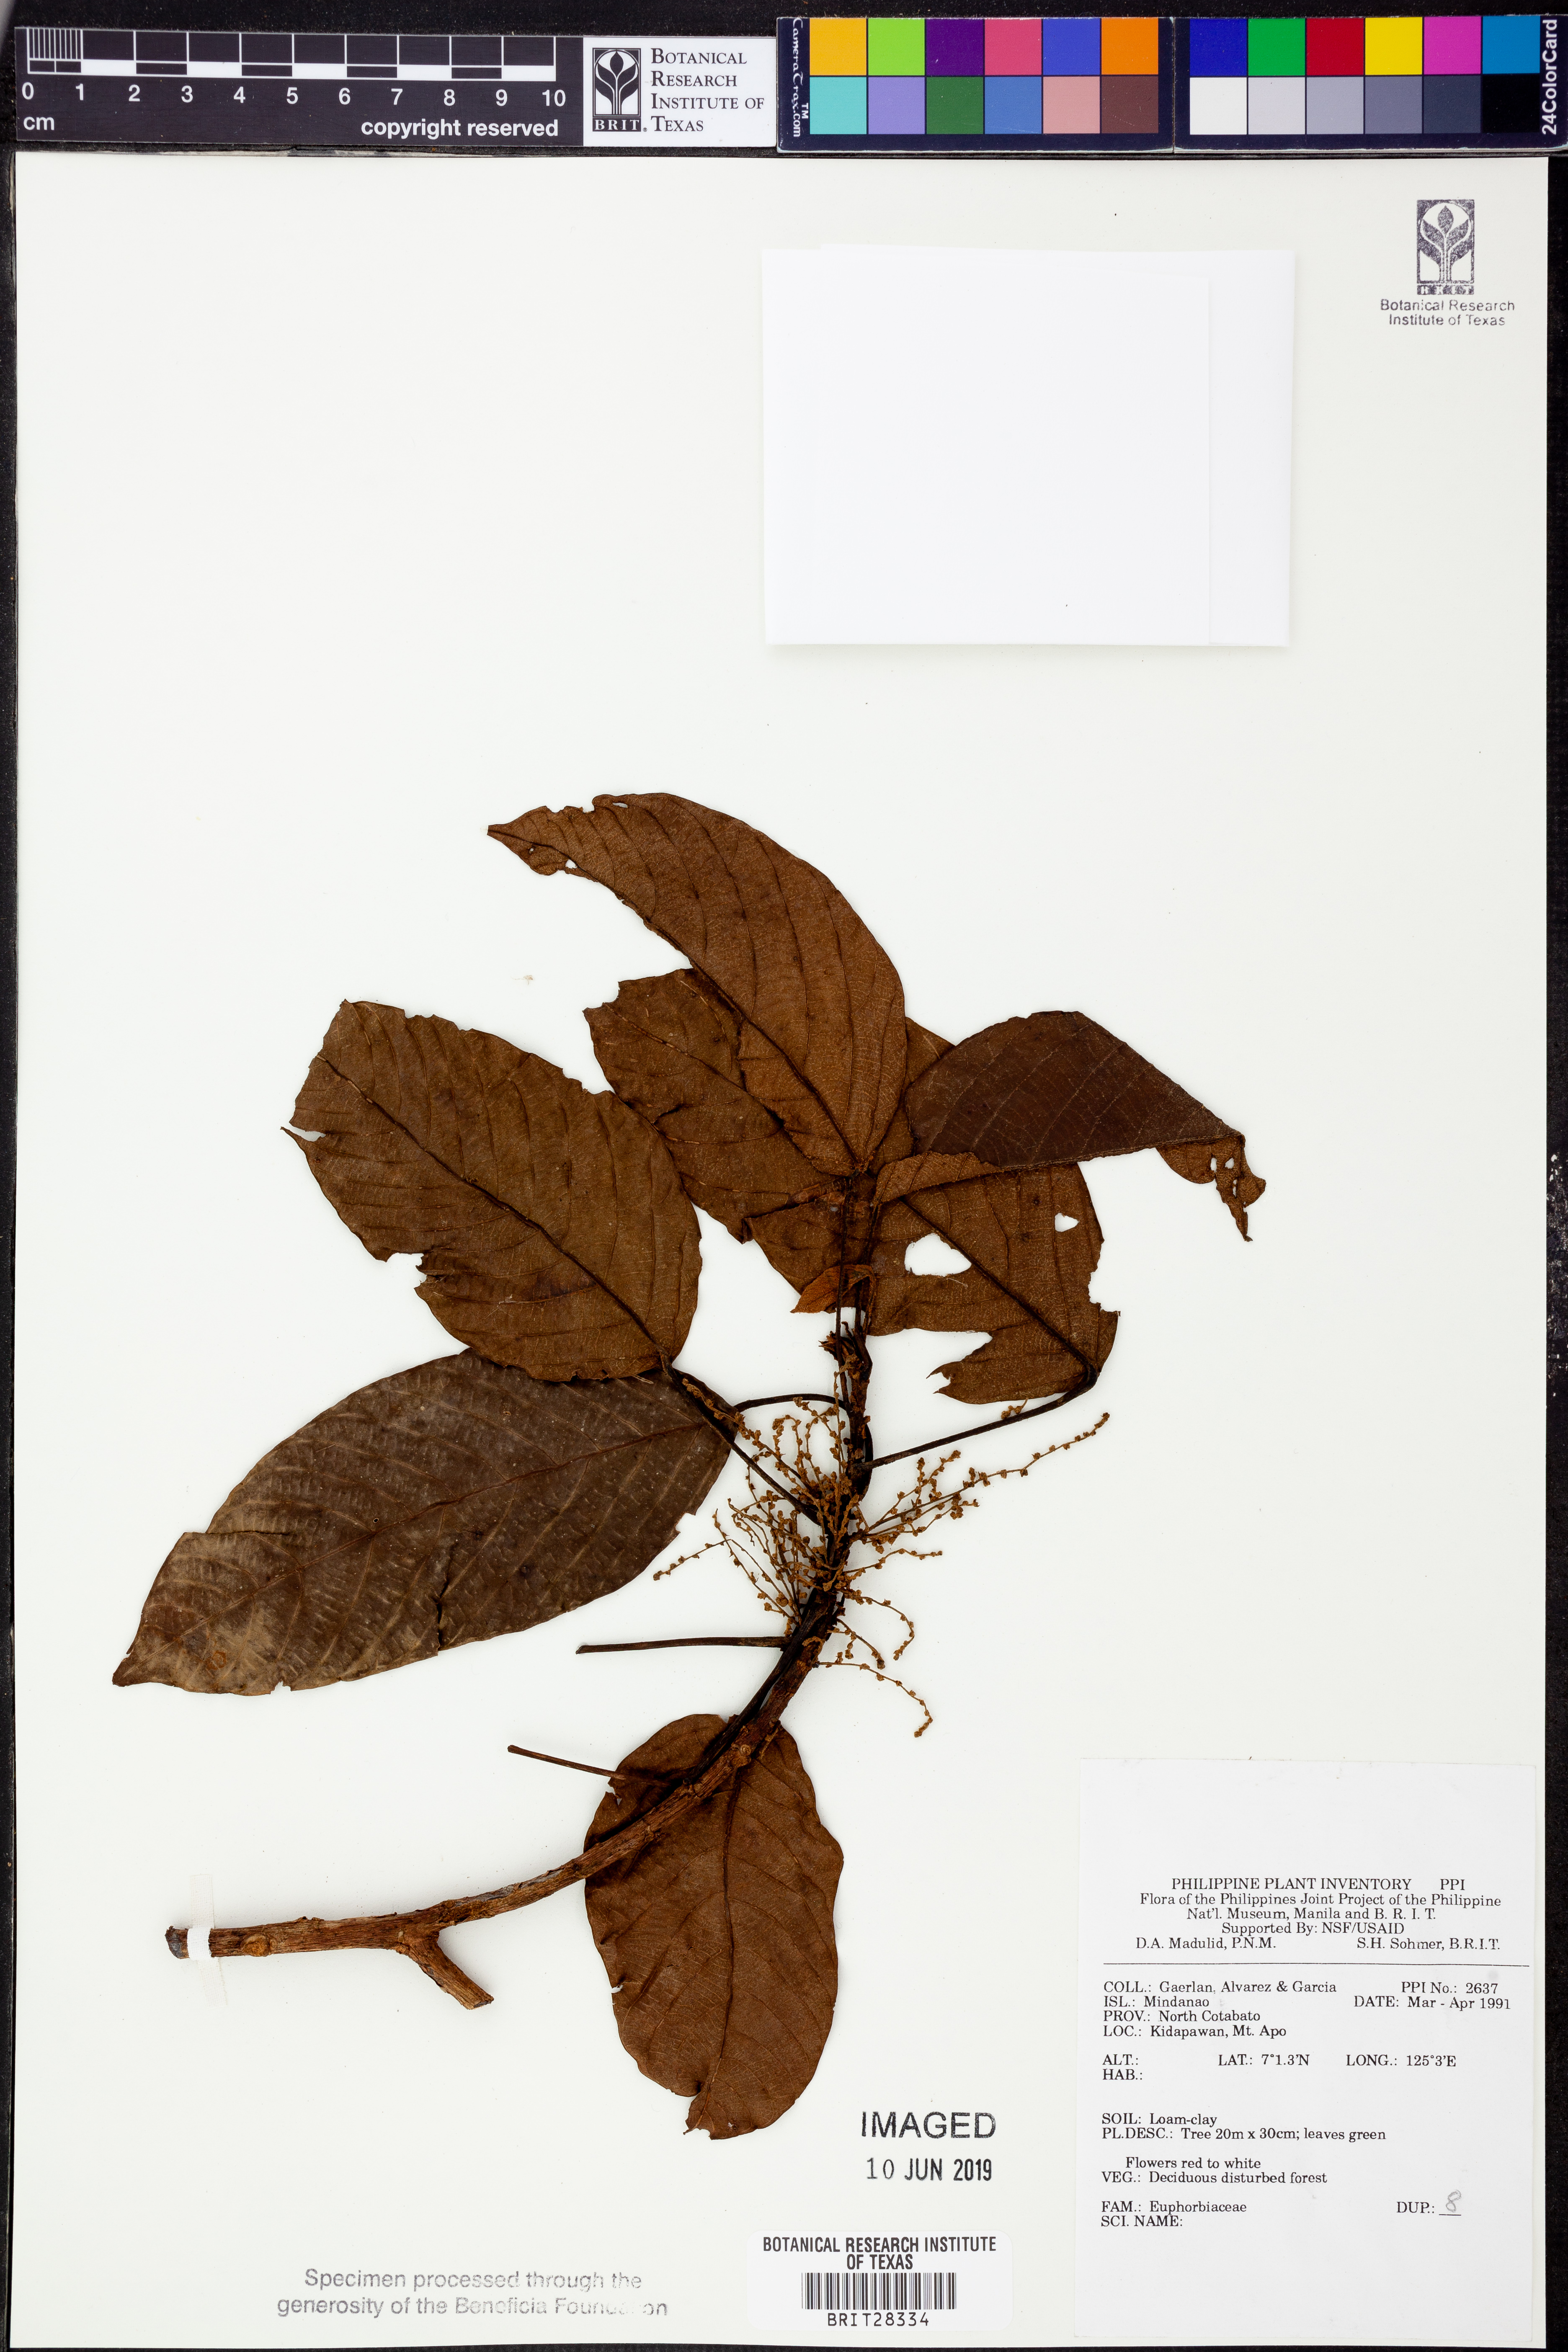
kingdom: Plantae
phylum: Tracheophyta
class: Magnoliopsida
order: Malpighiales
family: Euphorbiaceae
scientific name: Euphorbiaceae
